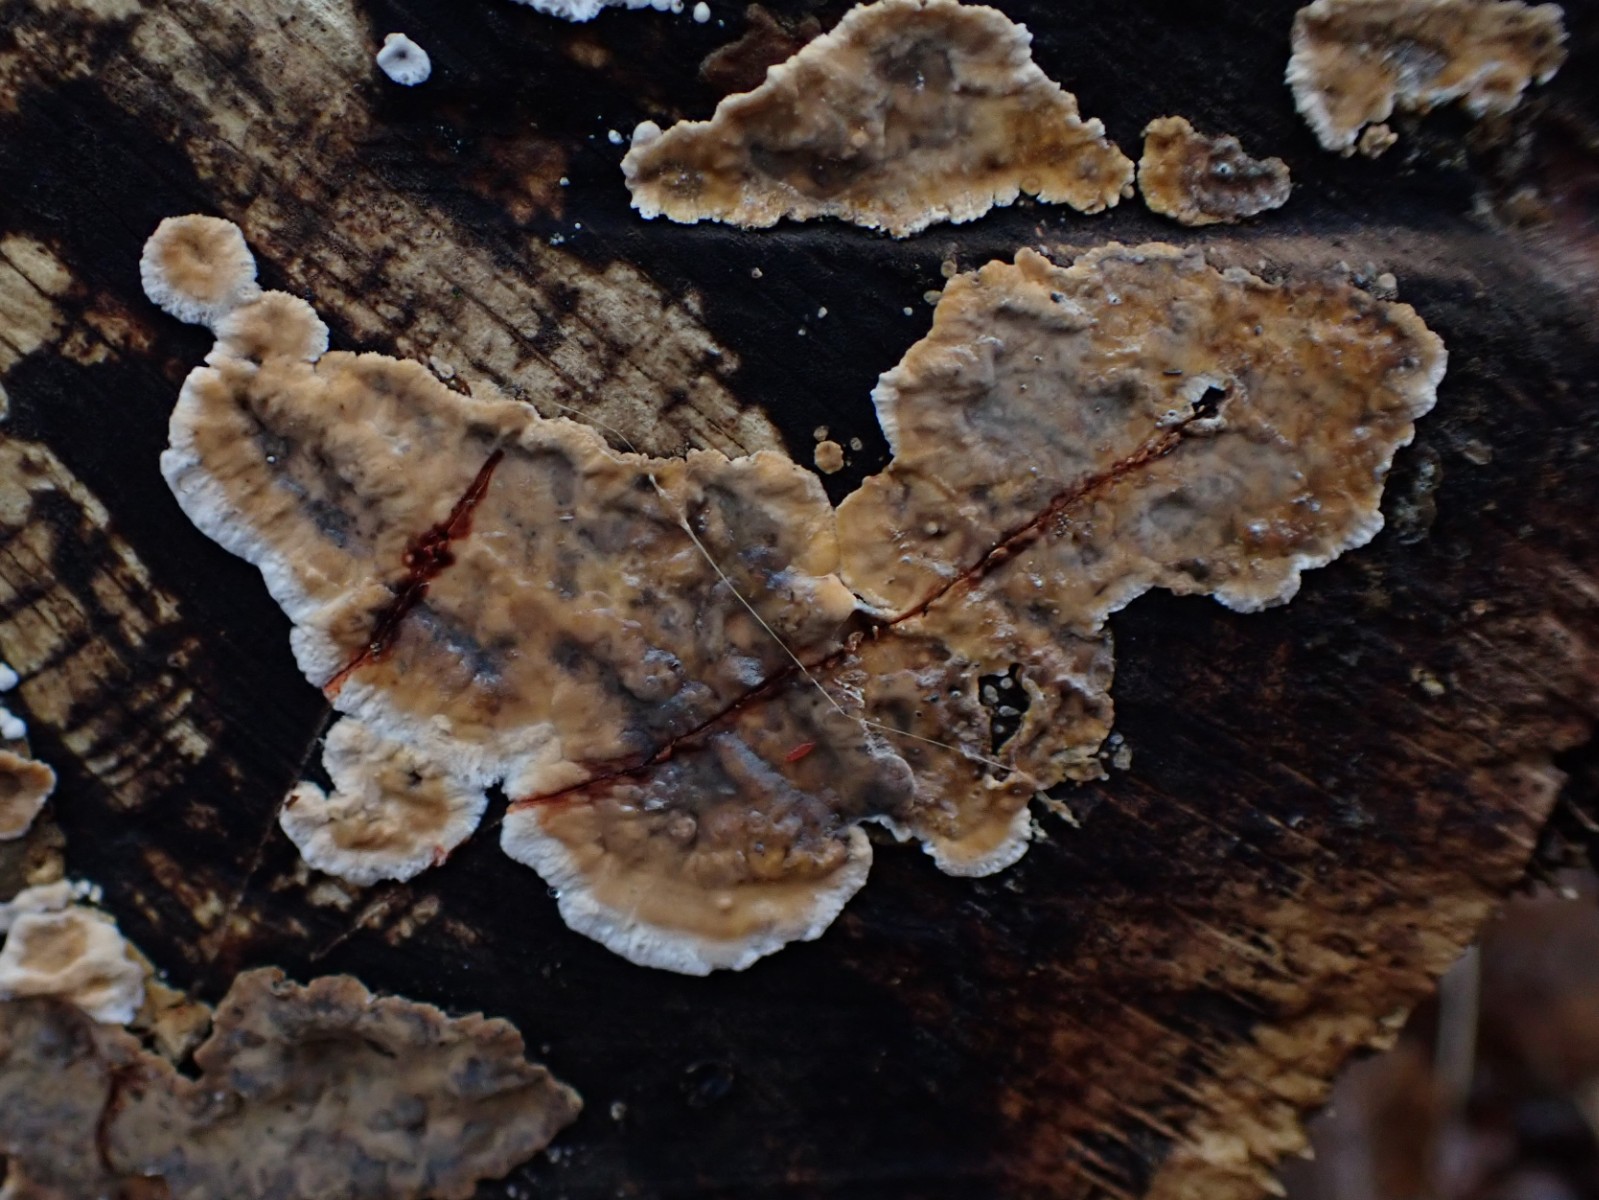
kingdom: Fungi
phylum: Basidiomycota
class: Agaricomycetes
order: Russulales
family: Stereaceae
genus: Stereum
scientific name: Stereum rugosum
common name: rynket lædersvamp
